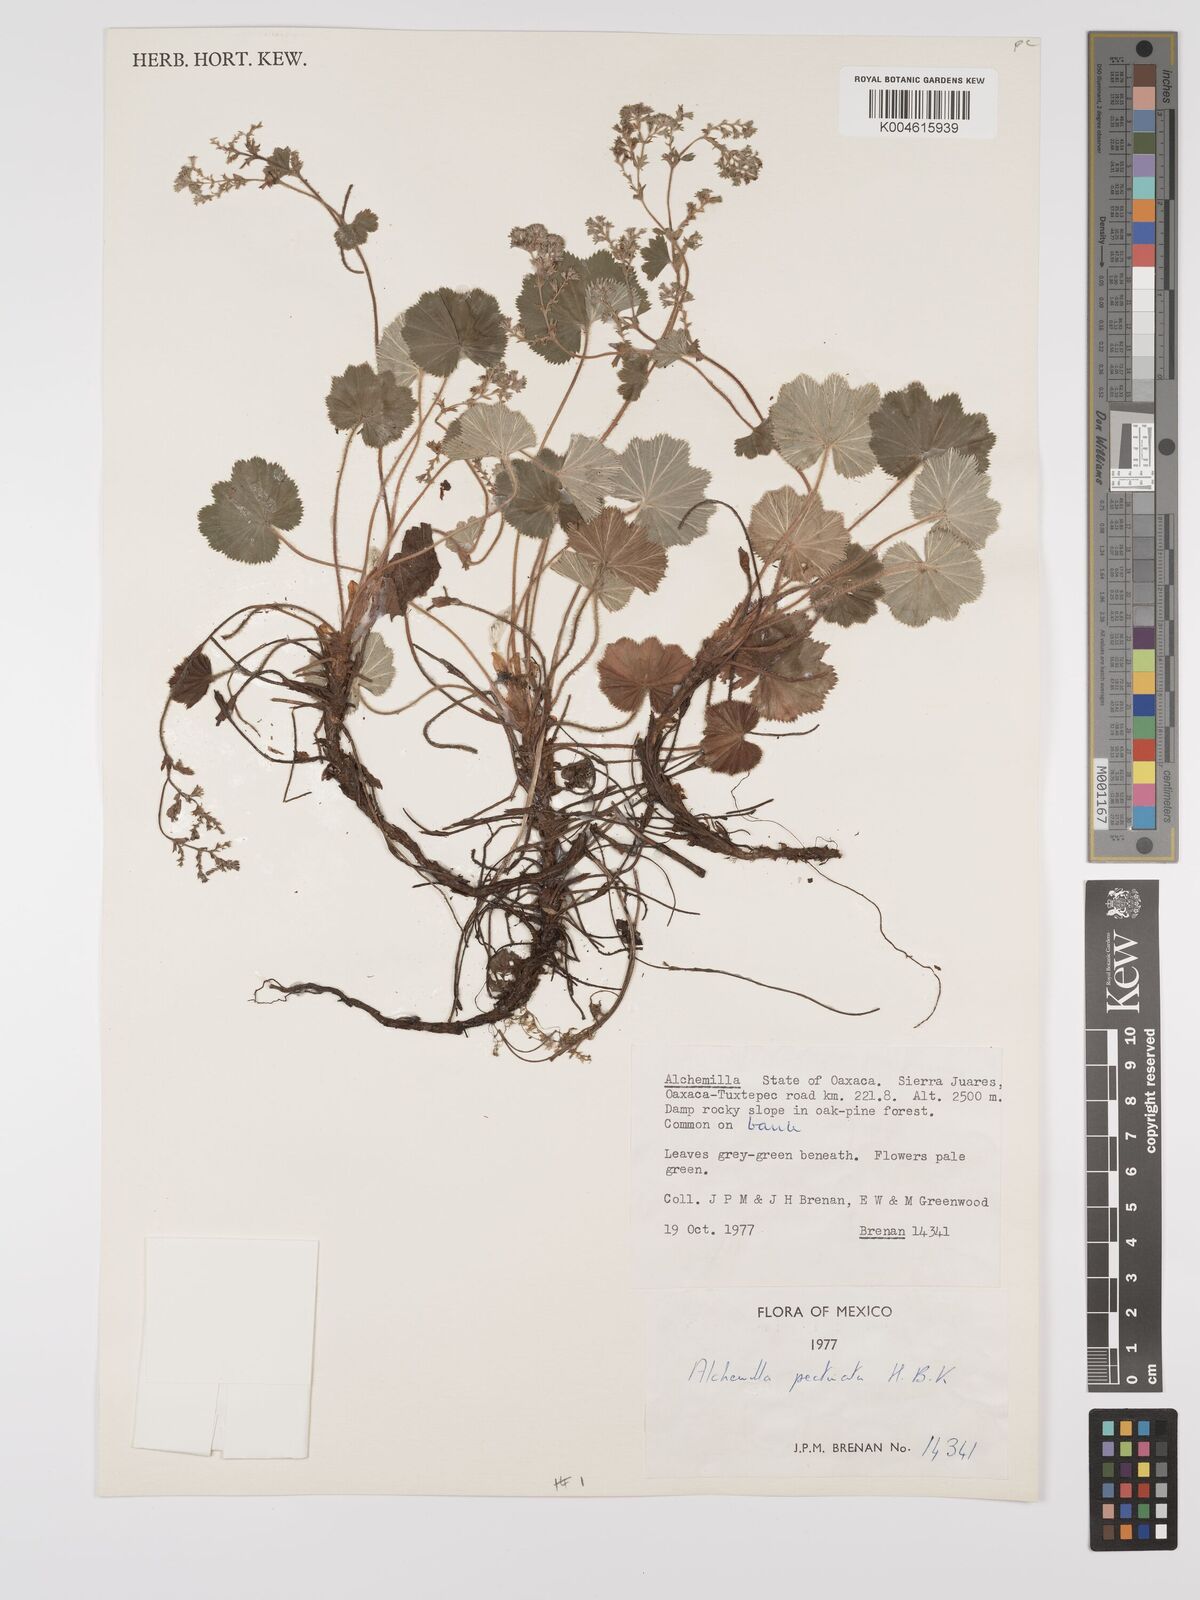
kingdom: Plantae
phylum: Tracheophyta
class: Magnoliopsida
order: Rosales
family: Rosaceae
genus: Lachemilla
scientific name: Lachemilla pectinata
